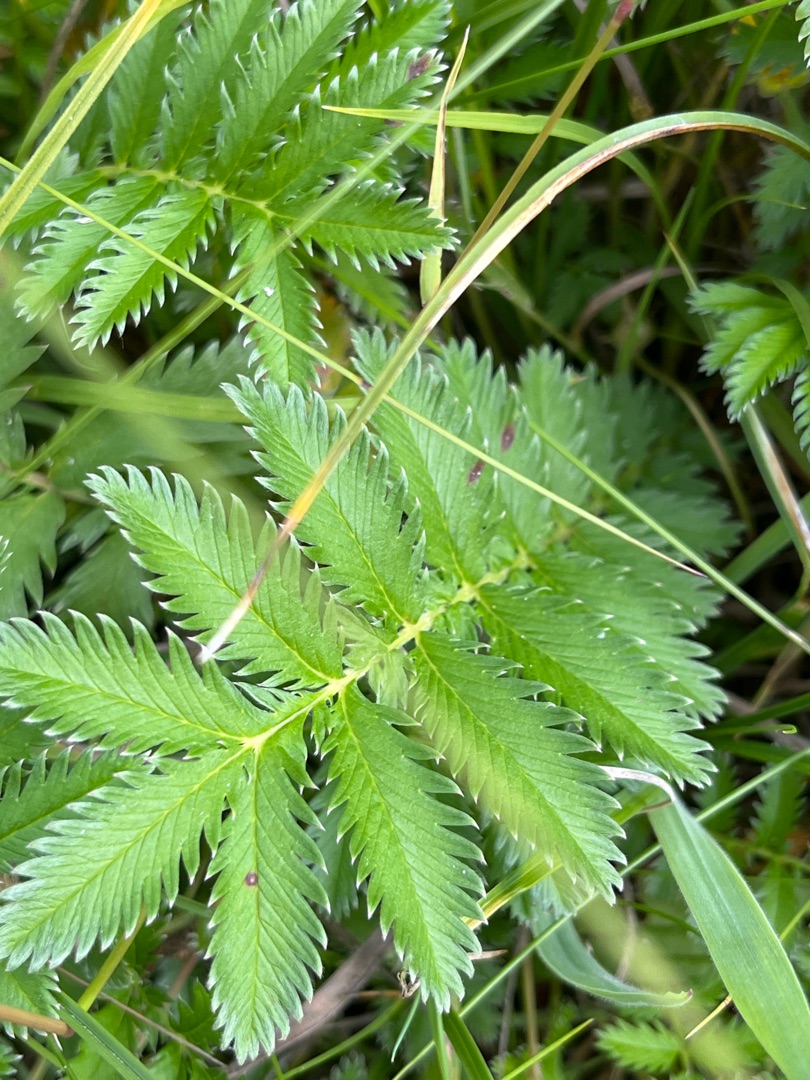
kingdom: Plantae
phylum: Tracheophyta
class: Magnoliopsida
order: Rosales
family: Rosaceae
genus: Argentina
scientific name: Argentina anserina
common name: Gåsepotentil
